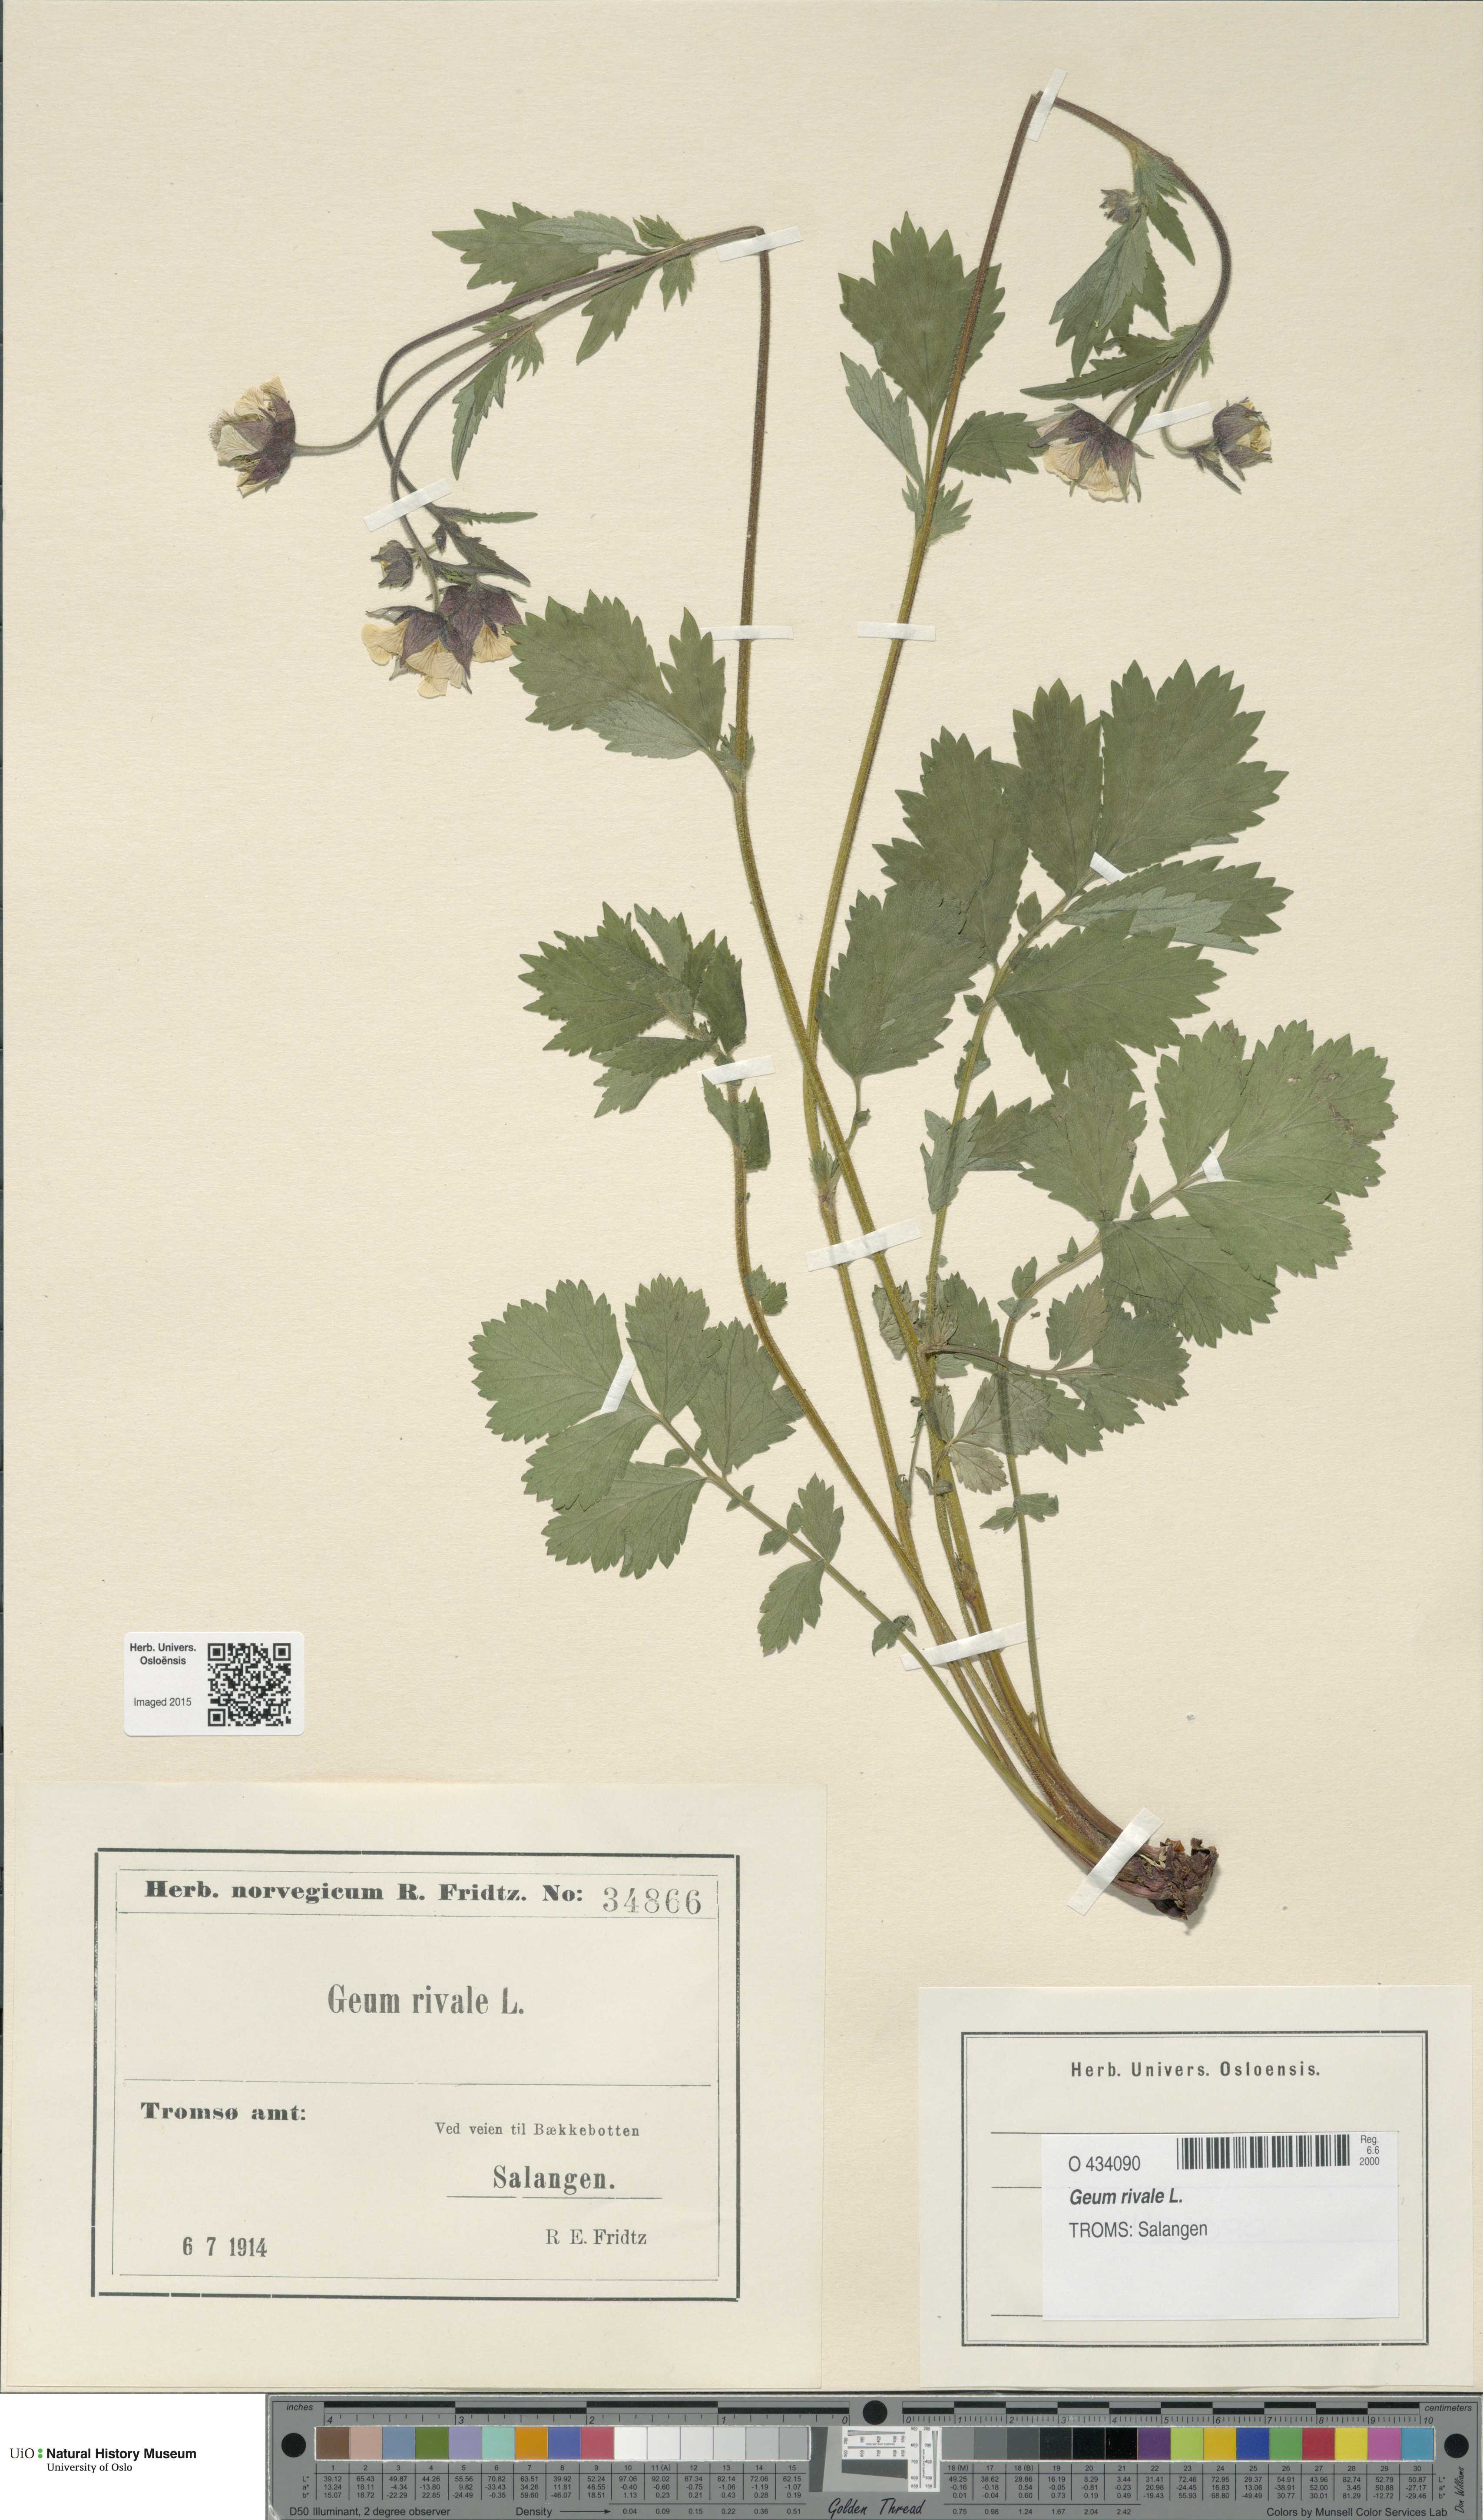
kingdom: Plantae
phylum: Tracheophyta
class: Magnoliopsida
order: Rosales
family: Rosaceae
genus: Geum
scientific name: Geum rivale
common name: Water avens
